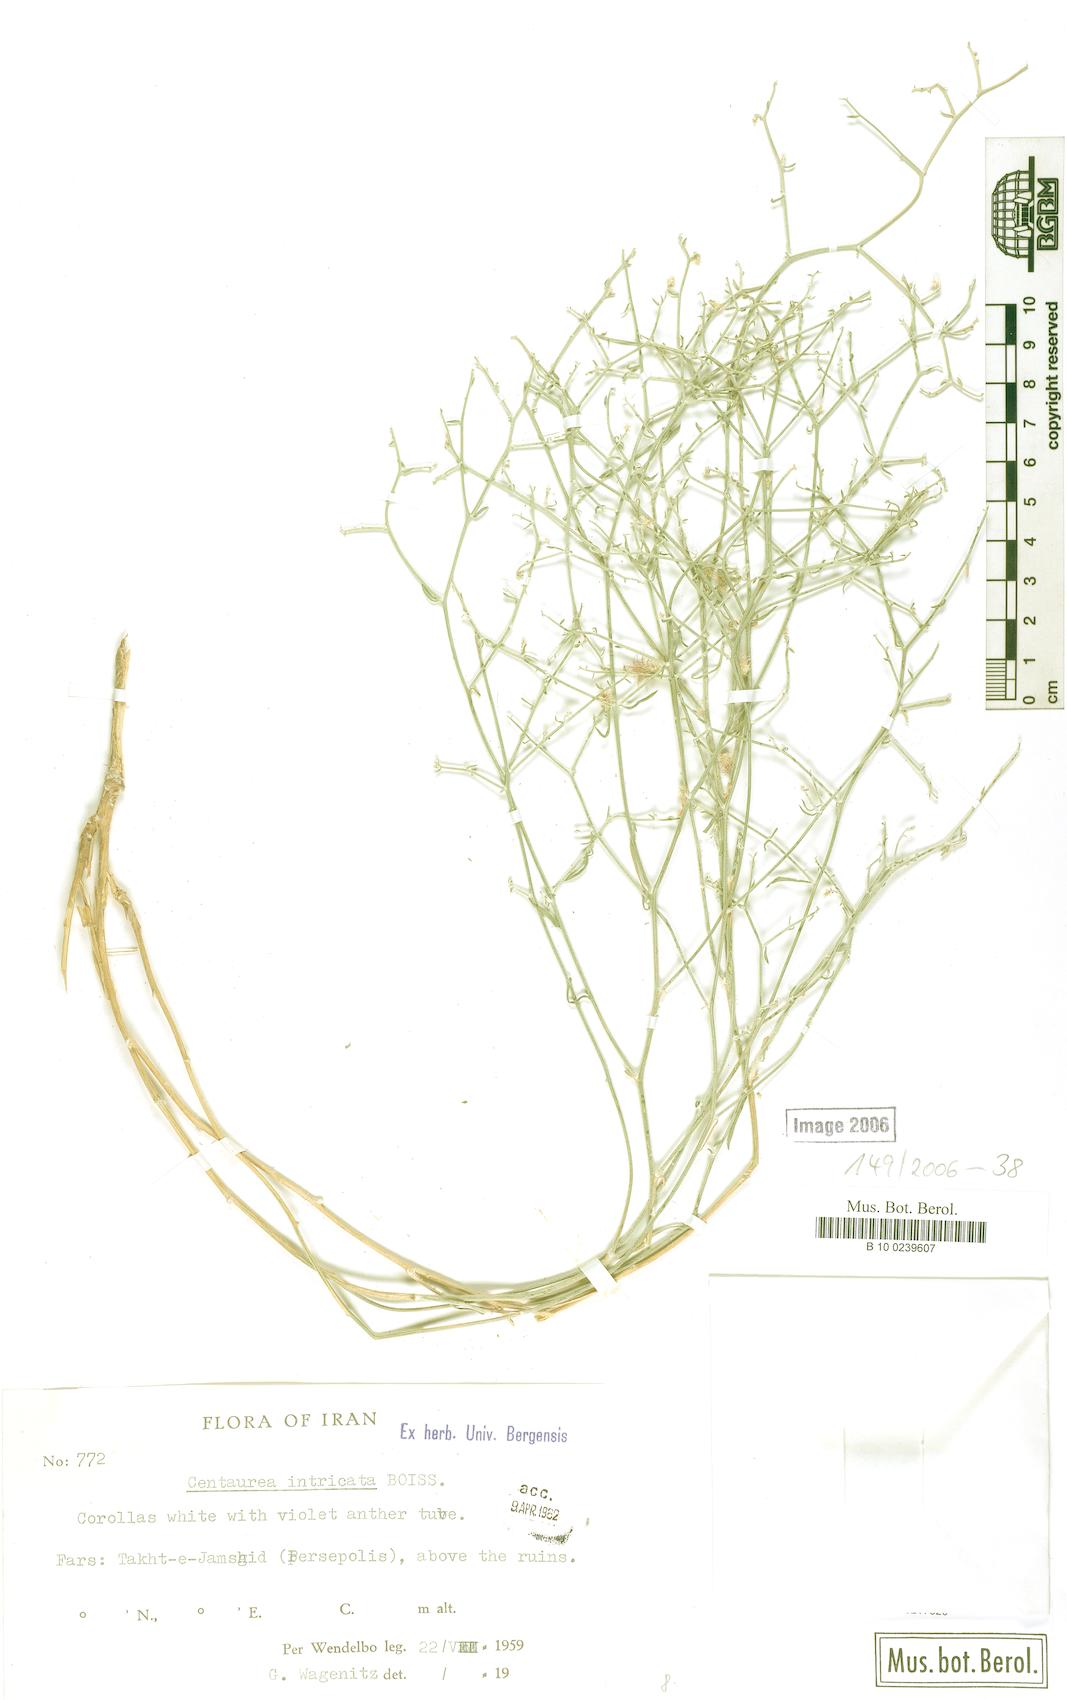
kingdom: Plantae
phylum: Tracheophyta
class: Magnoliopsida
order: Asterales
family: Asteraceae
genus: Centaurea
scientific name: Centaurea intricata
